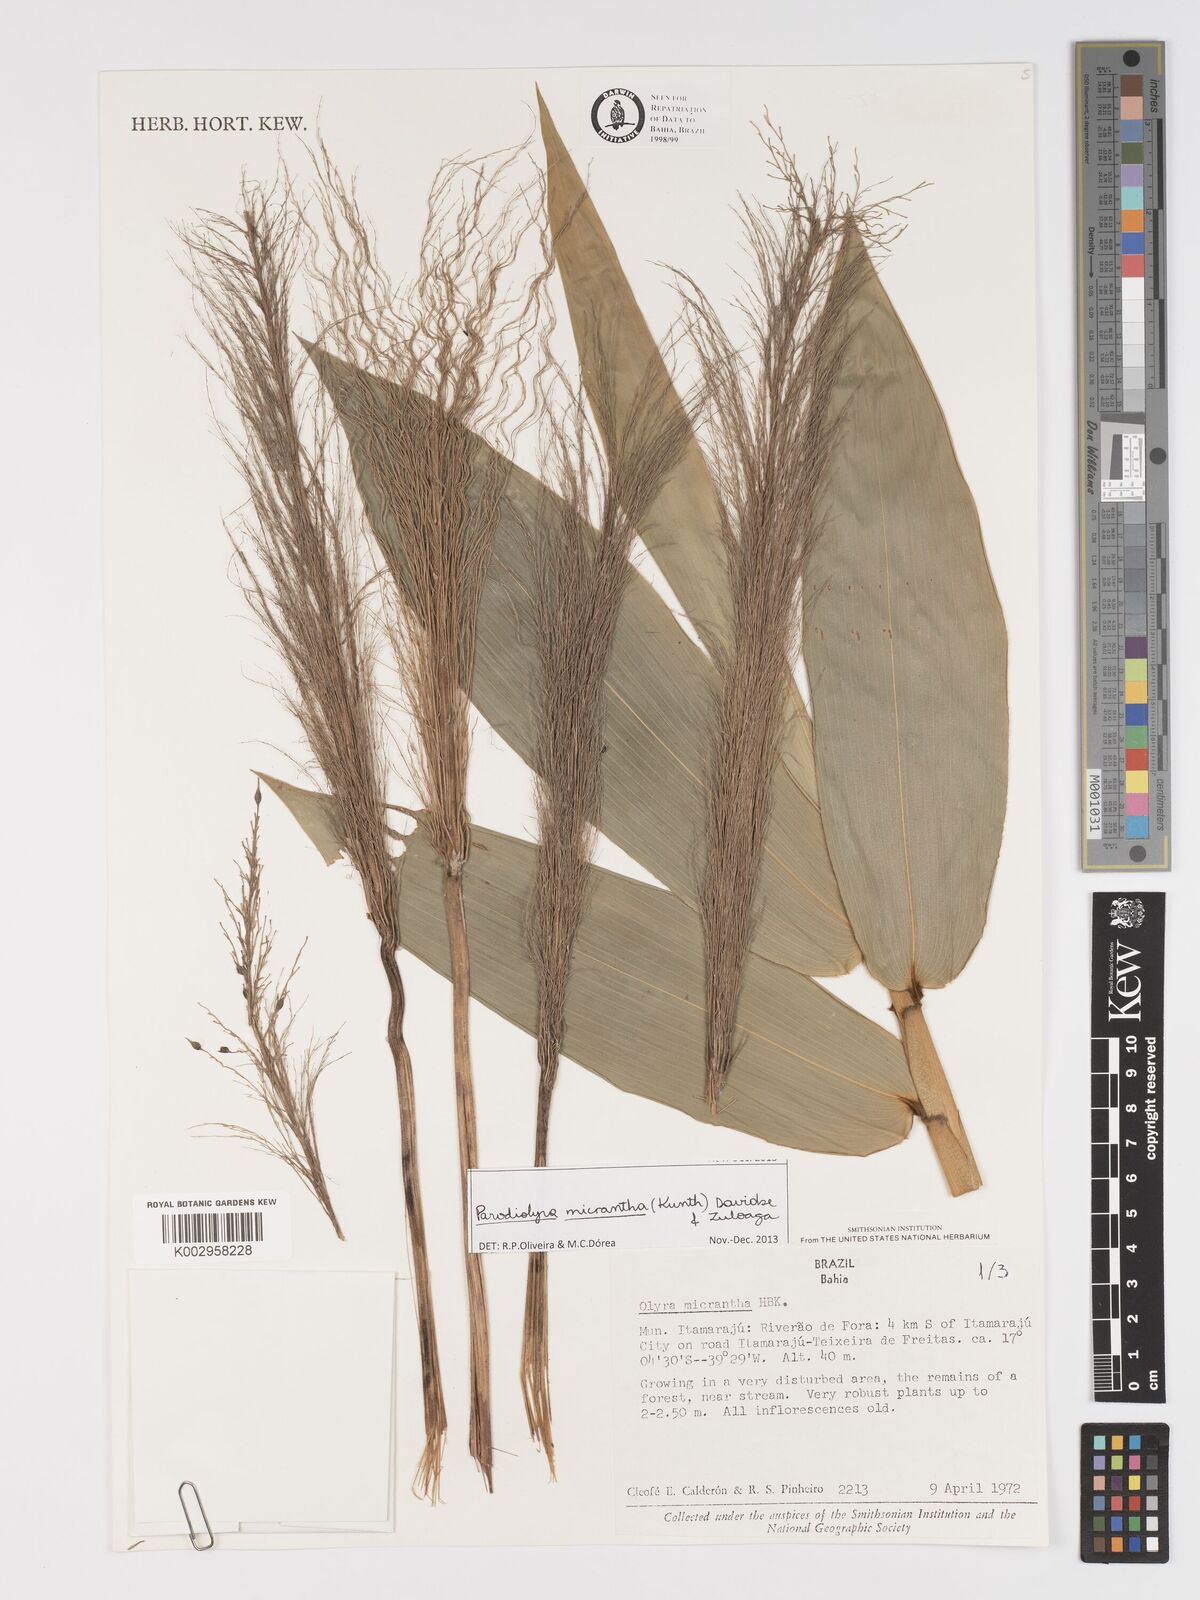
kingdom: Plantae
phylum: Tracheophyta
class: Liliopsida
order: Poales
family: Poaceae
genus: Taquara
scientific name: Taquara micrantha
